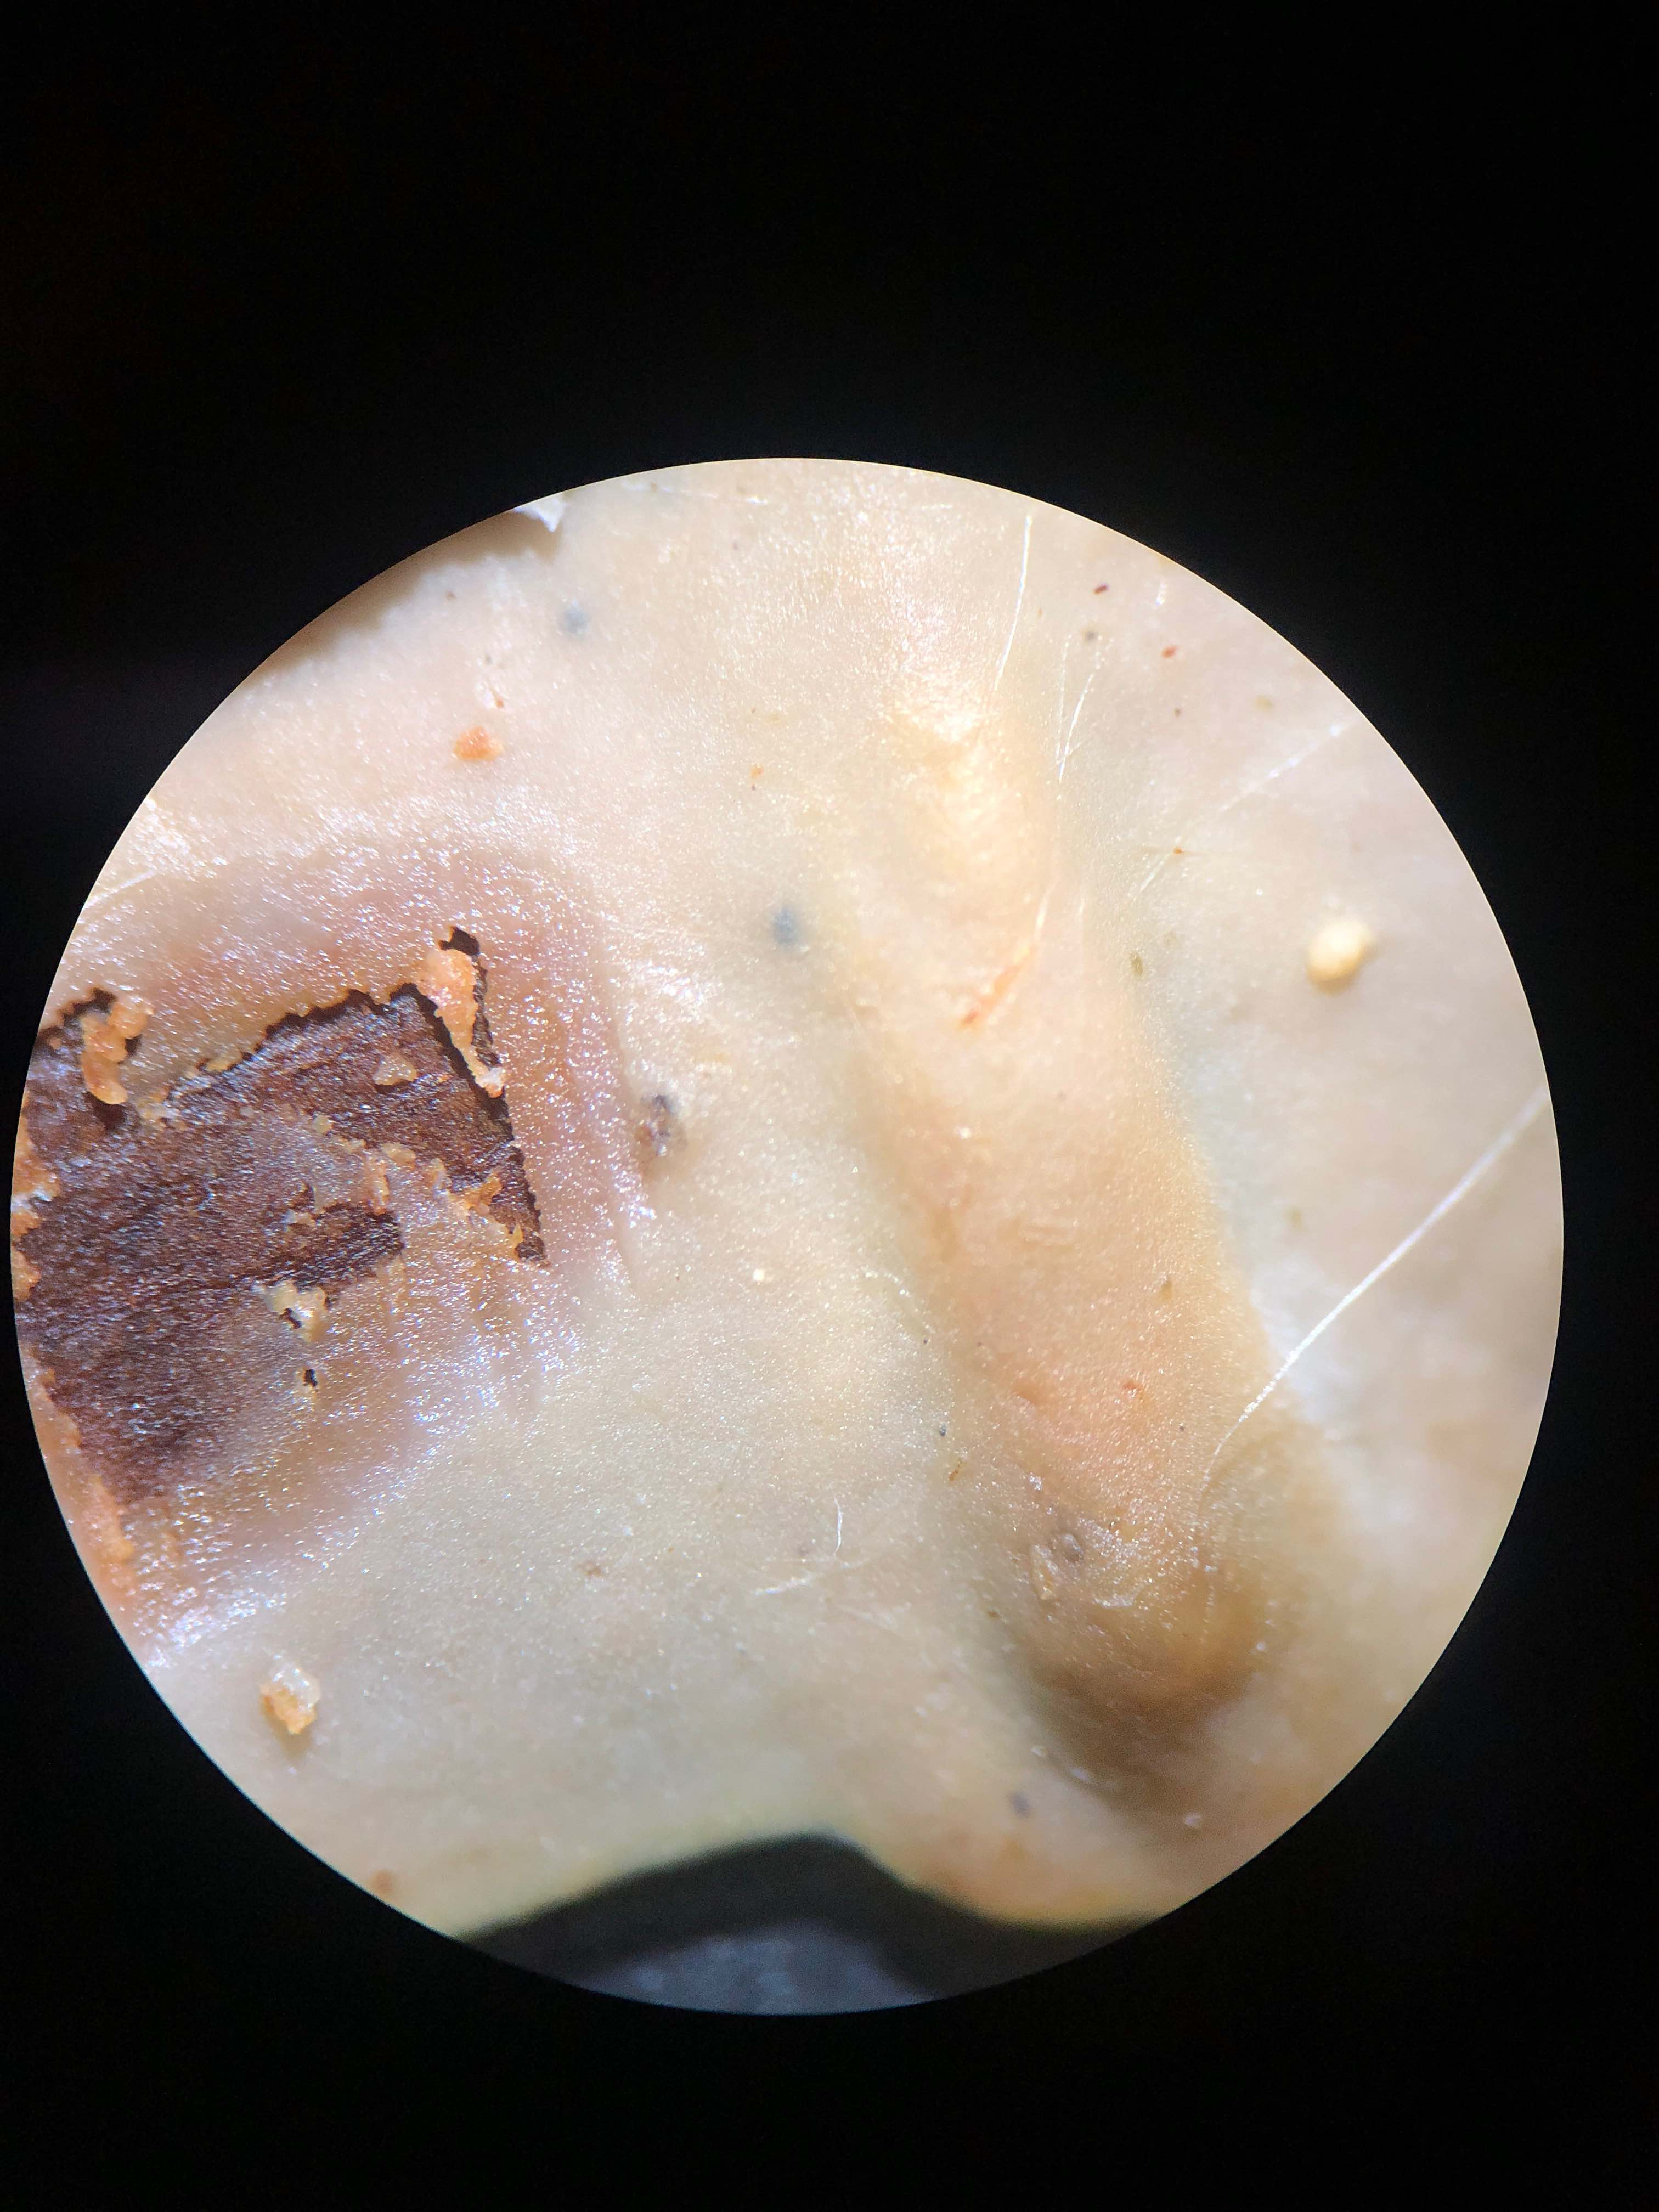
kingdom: Fungi
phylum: Basidiomycota
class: Agaricomycetes
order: Corticiales
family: Vuilleminiaceae
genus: Vuilleminia
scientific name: Vuilleminia comedens
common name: almindelig barksprænger
